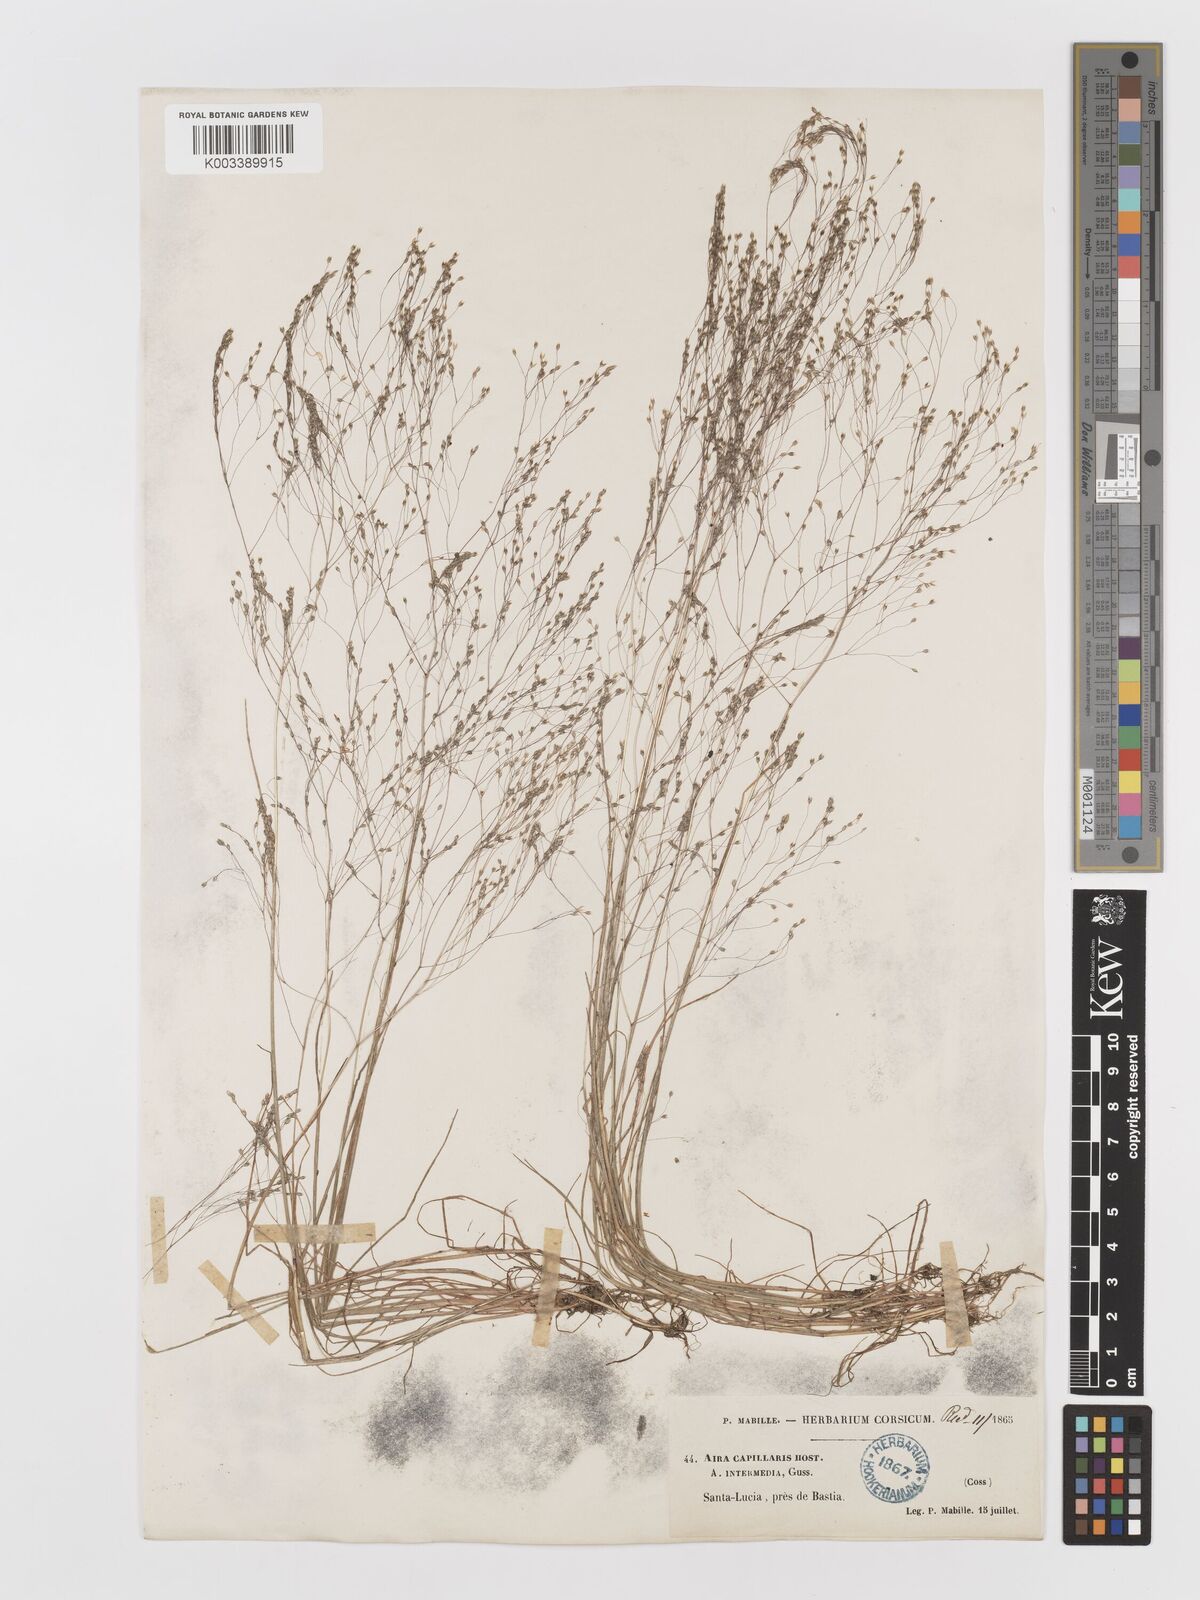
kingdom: Plantae
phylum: Tracheophyta
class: Liliopsida
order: Poales
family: Poaceae
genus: Aira
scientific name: Aira
